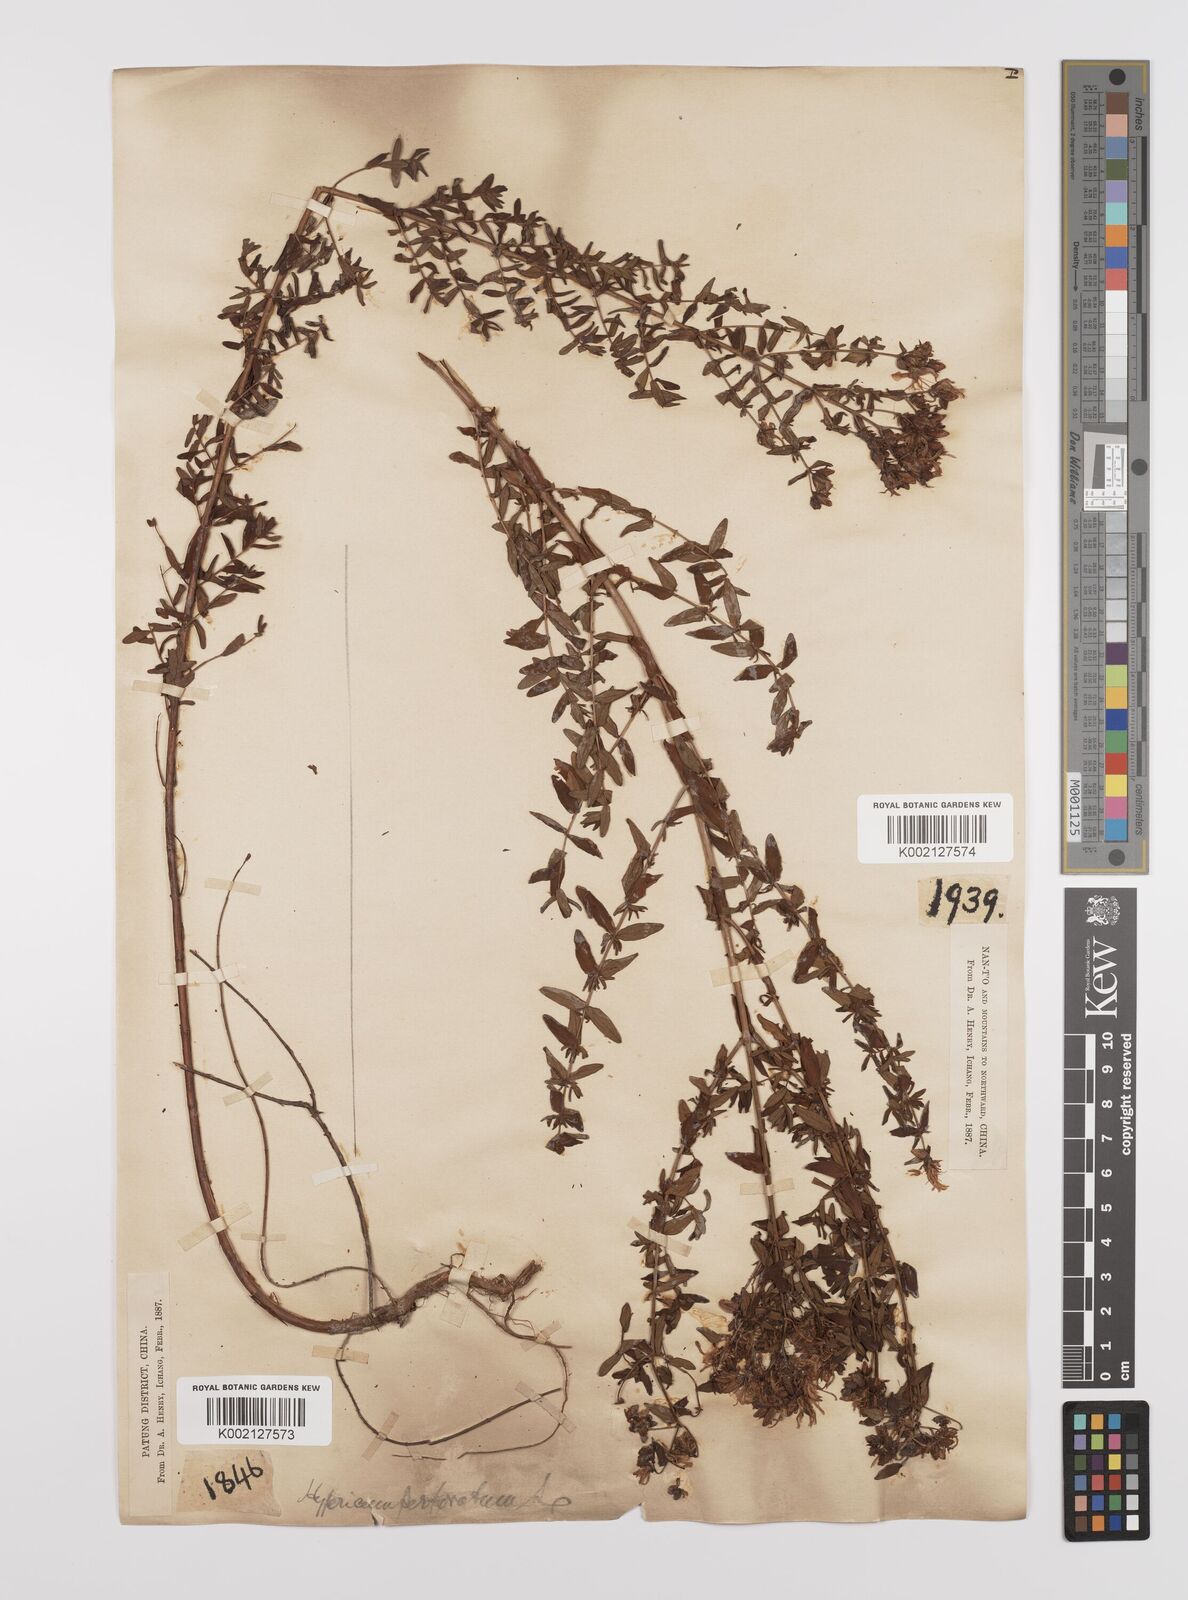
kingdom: Plantae
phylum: Tracheophyta
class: Magnoliopsida
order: Malpighiales
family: Hypericaceae
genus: Hypericum
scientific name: Hypericum perforatum
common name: Common st. johnswort
